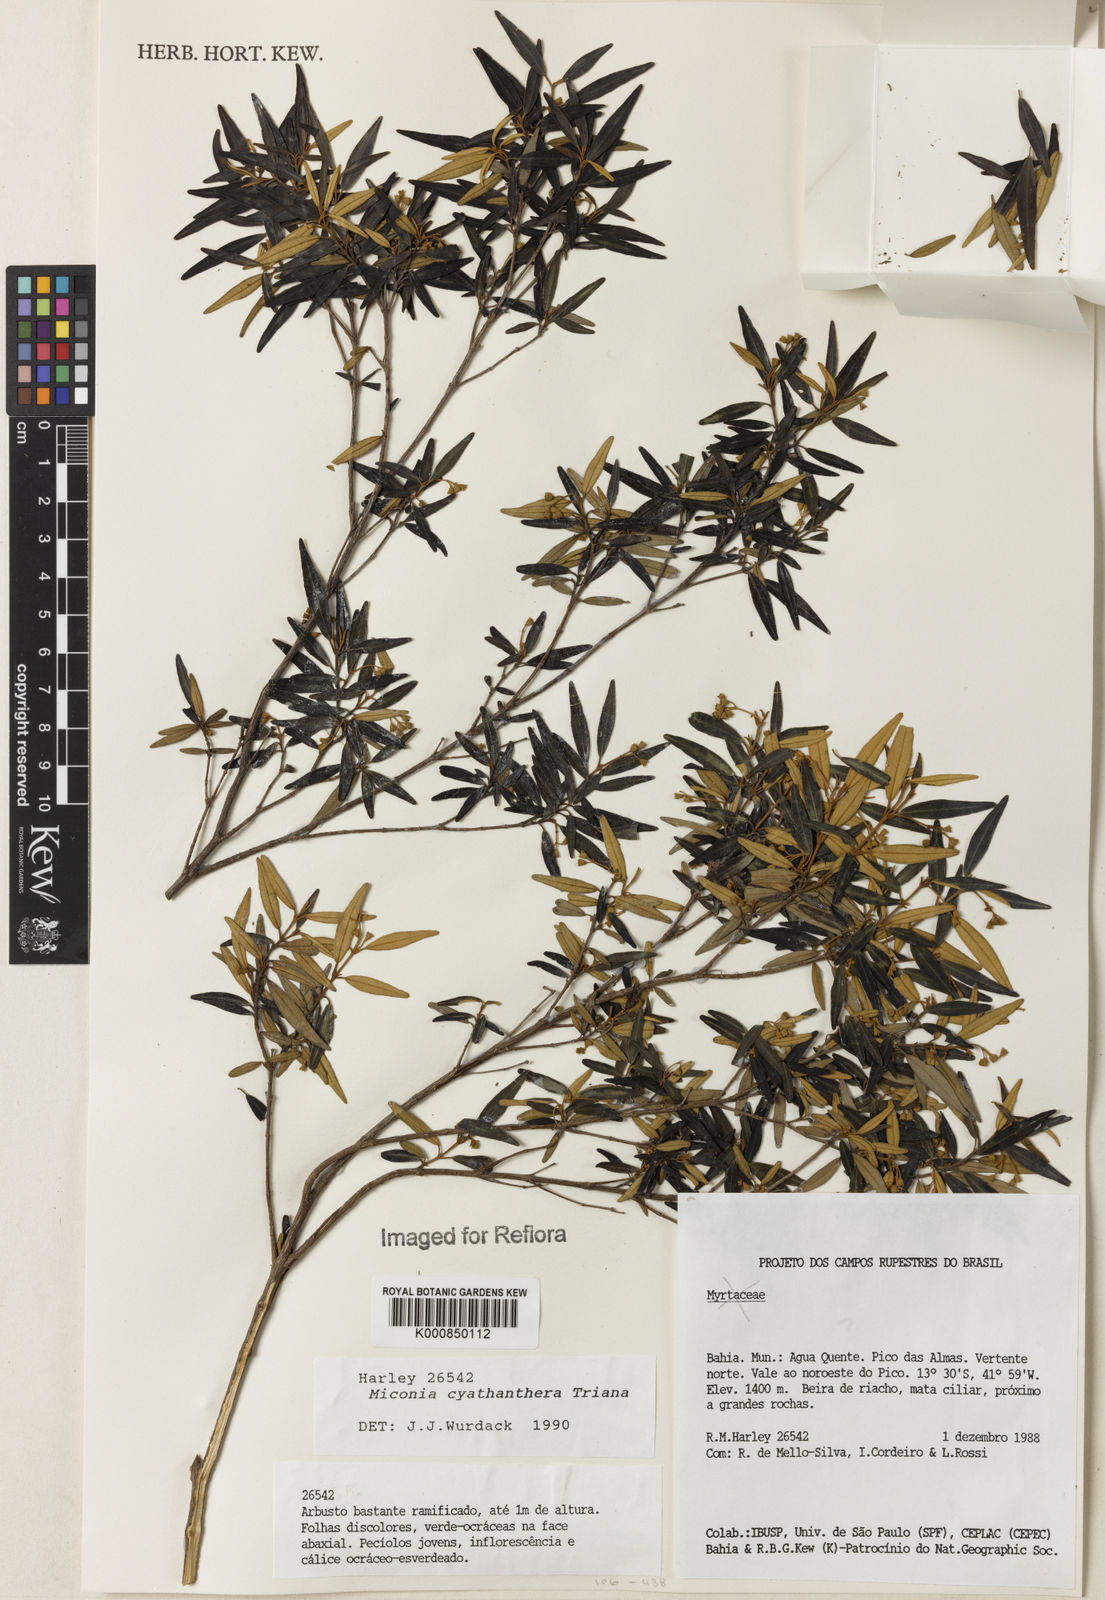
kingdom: Plantae
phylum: Tracheophyta
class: Magnoliopsida
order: Myrtales
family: Melastomataceae
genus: Miconia
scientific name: Miconia cyathanthera
